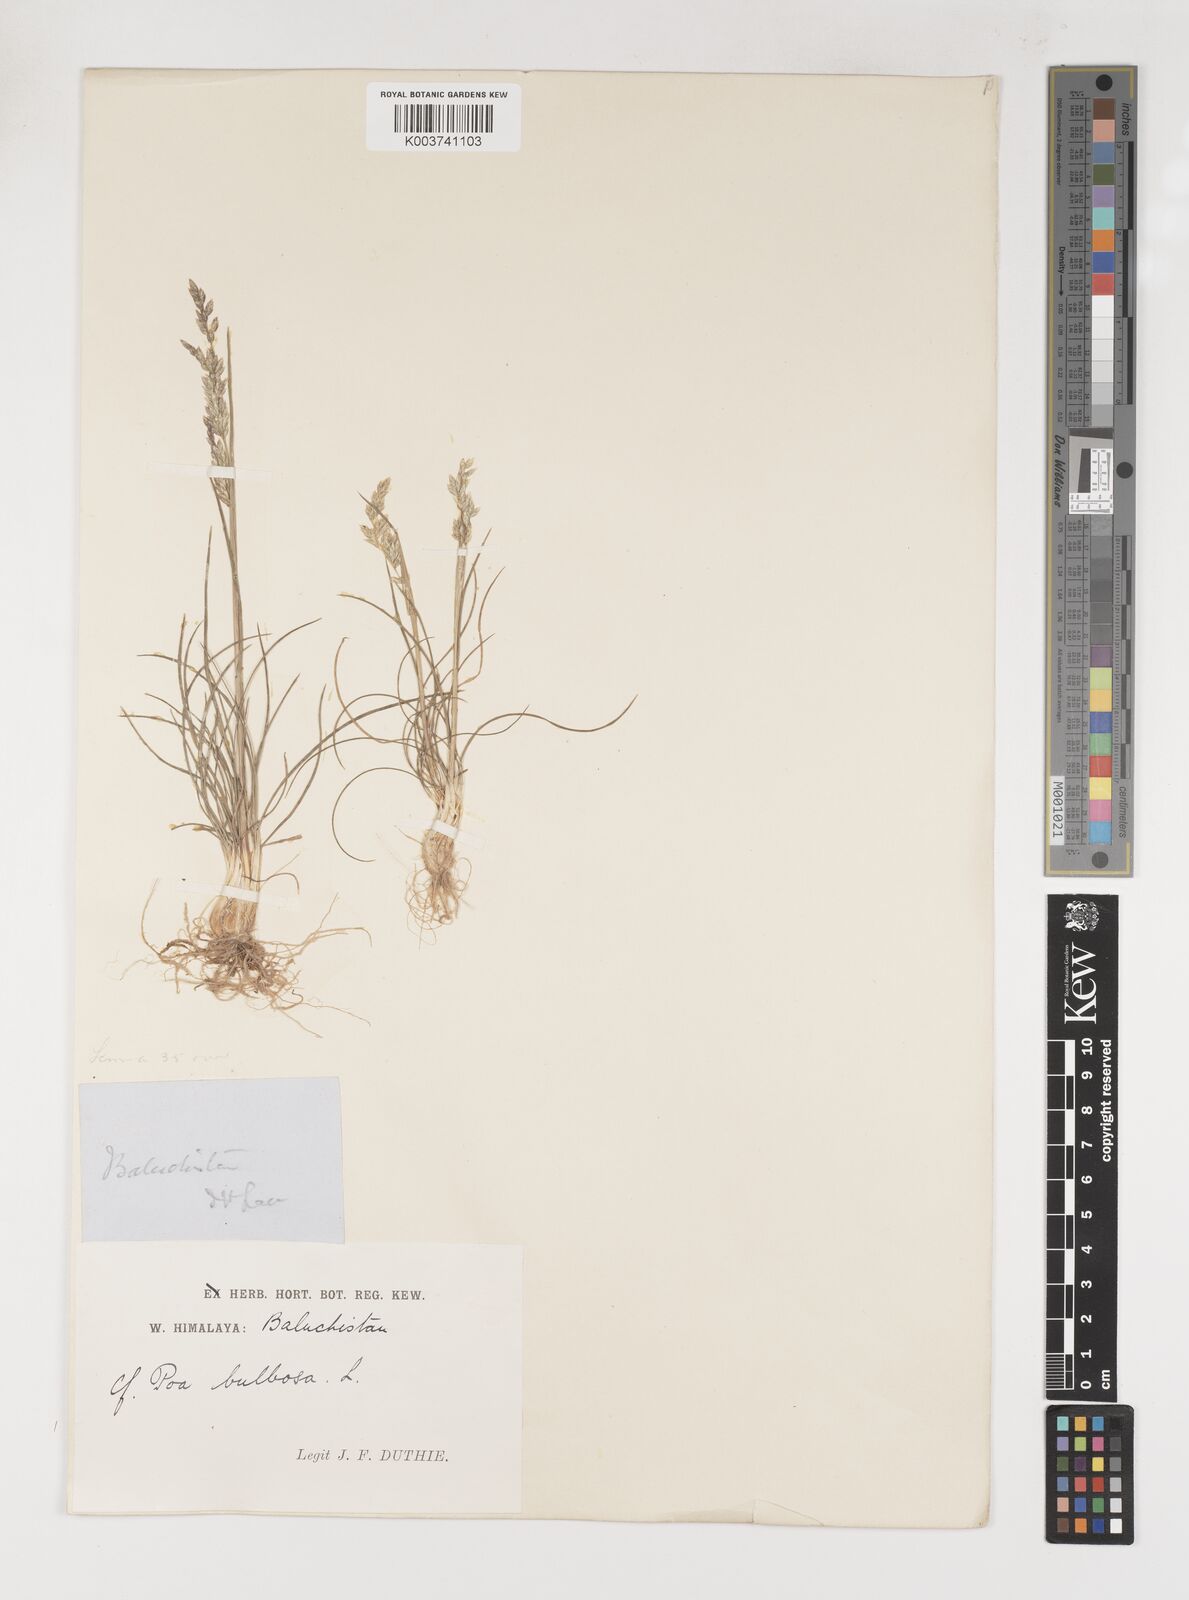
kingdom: Plantae
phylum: Tracheophyta
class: Liliopsida
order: Poales
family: Poaceae
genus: Poa
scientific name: Poa sinaica
